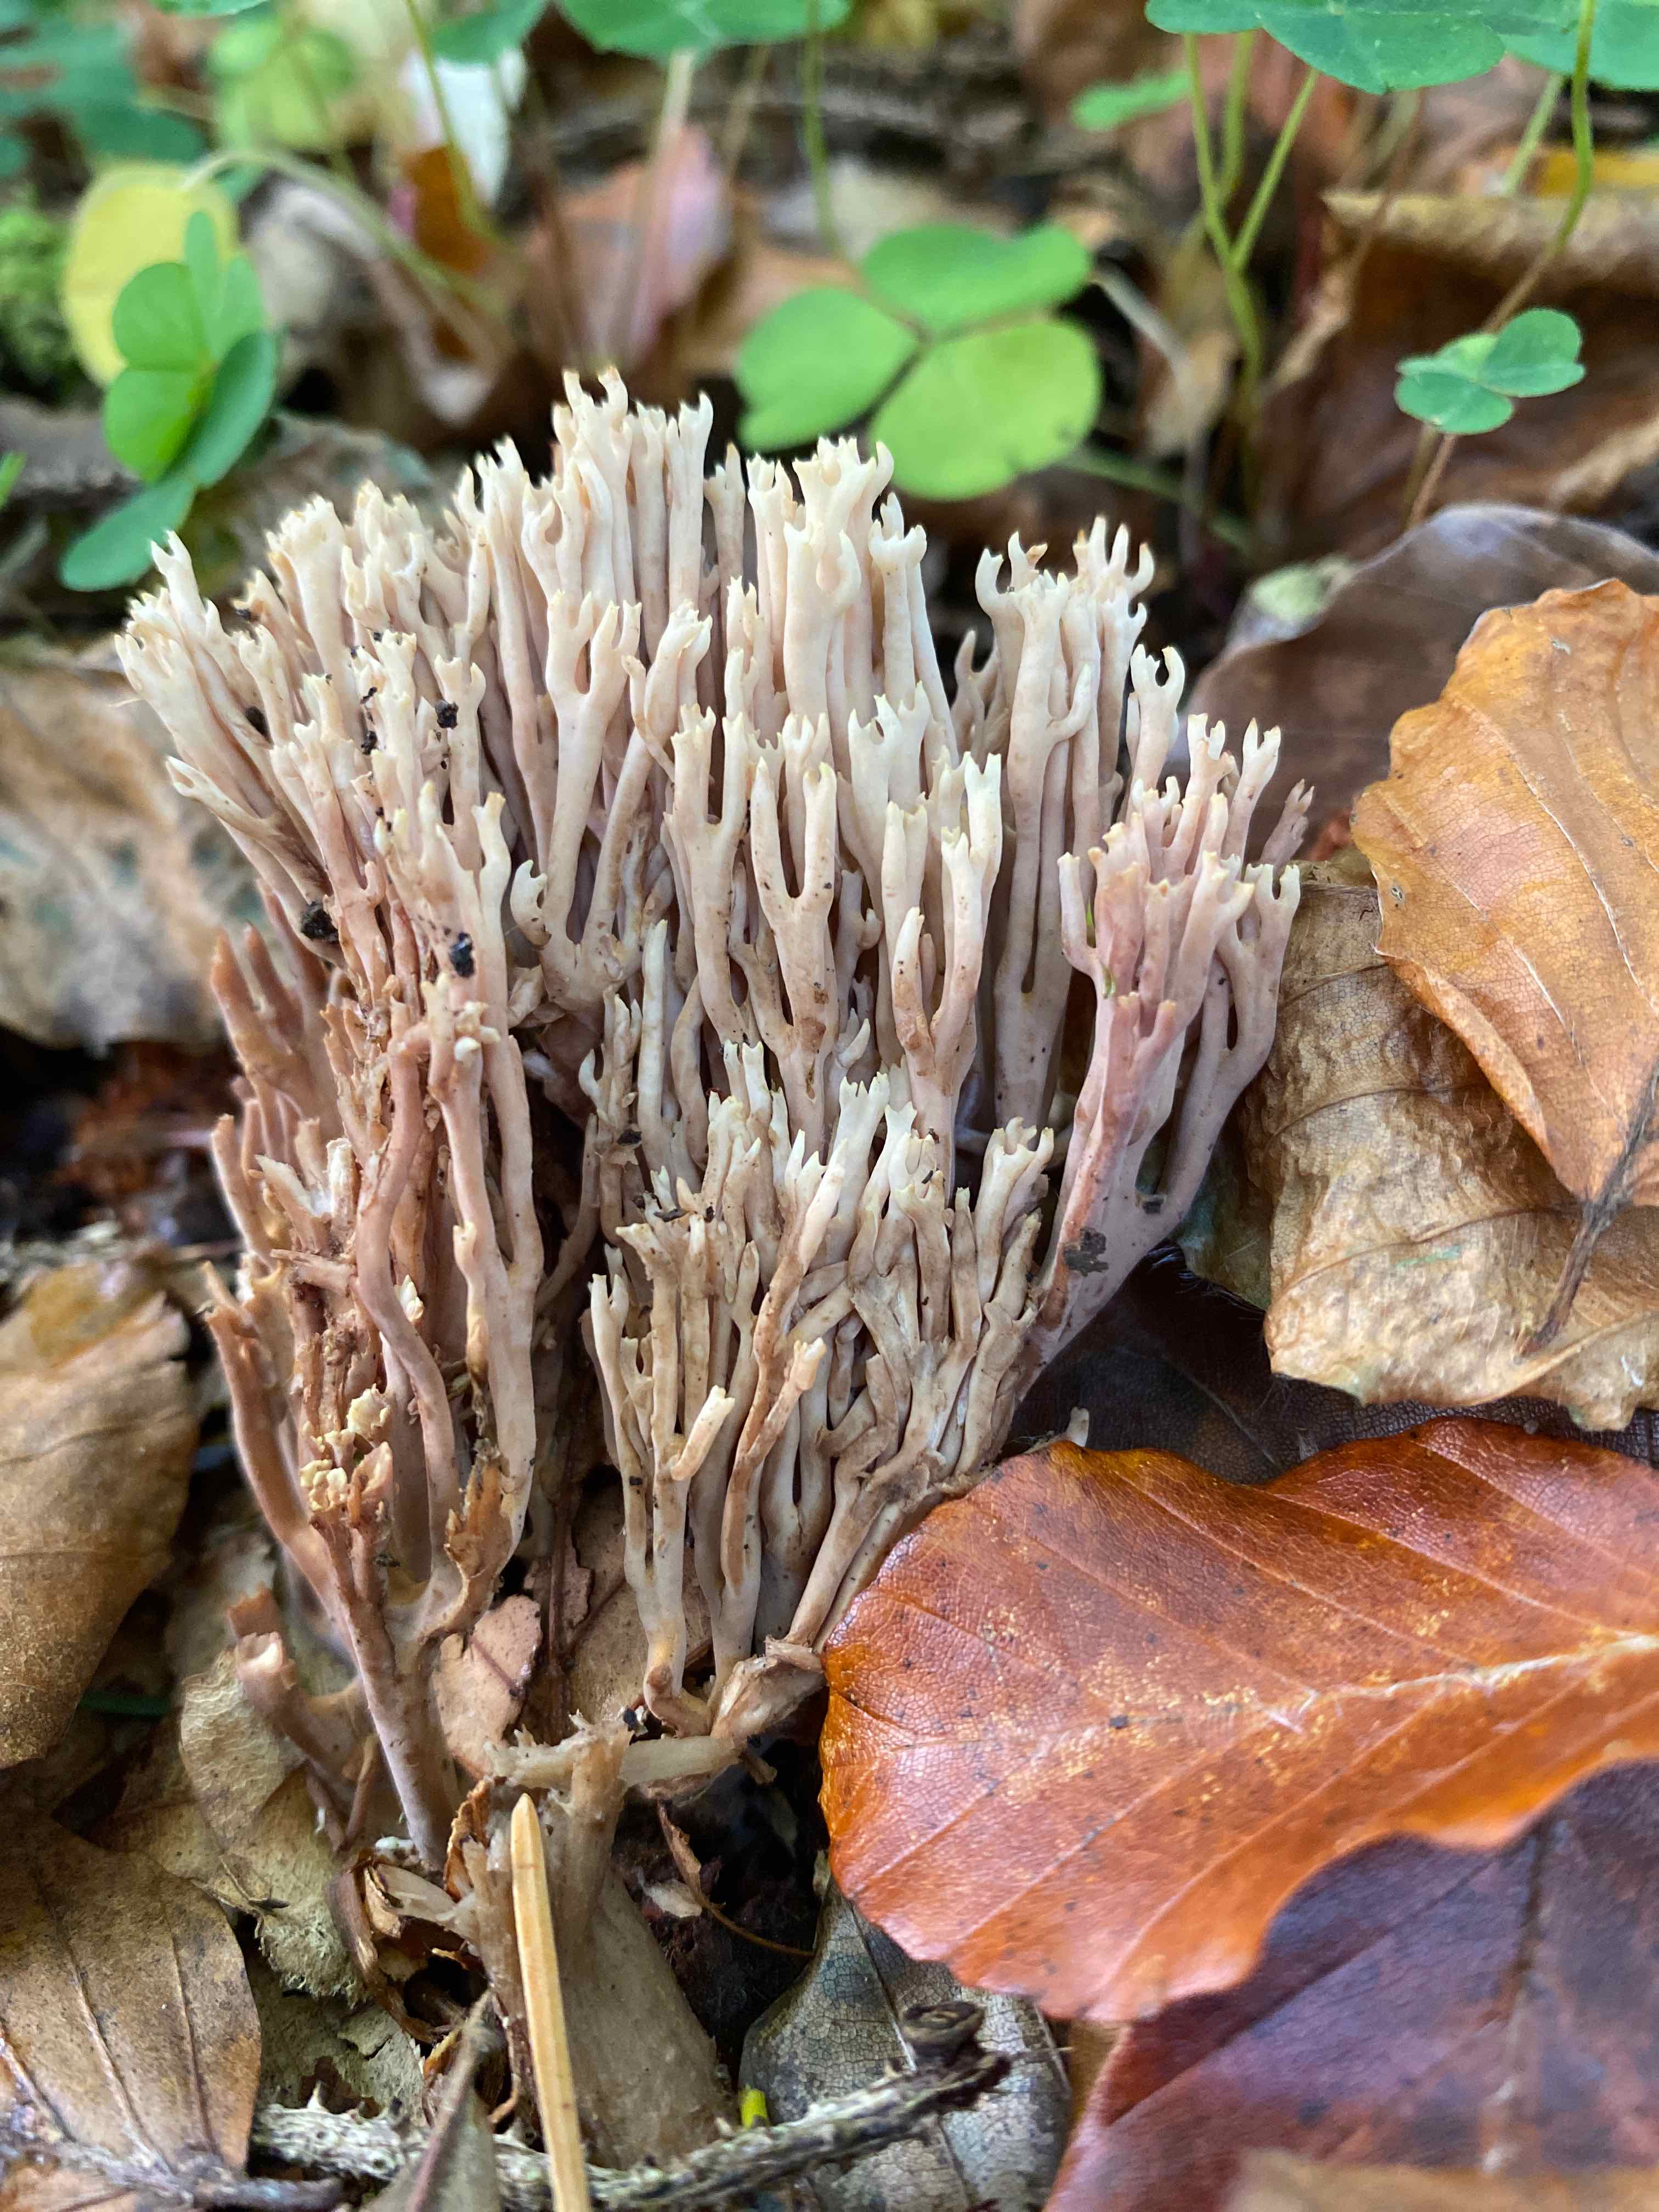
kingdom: Fungi
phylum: Basidiomycota
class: Agaricomycetes
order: Gomphales
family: Gomphaceae
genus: Ramaria
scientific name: Ramaria stricta
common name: rank koralsvamp
